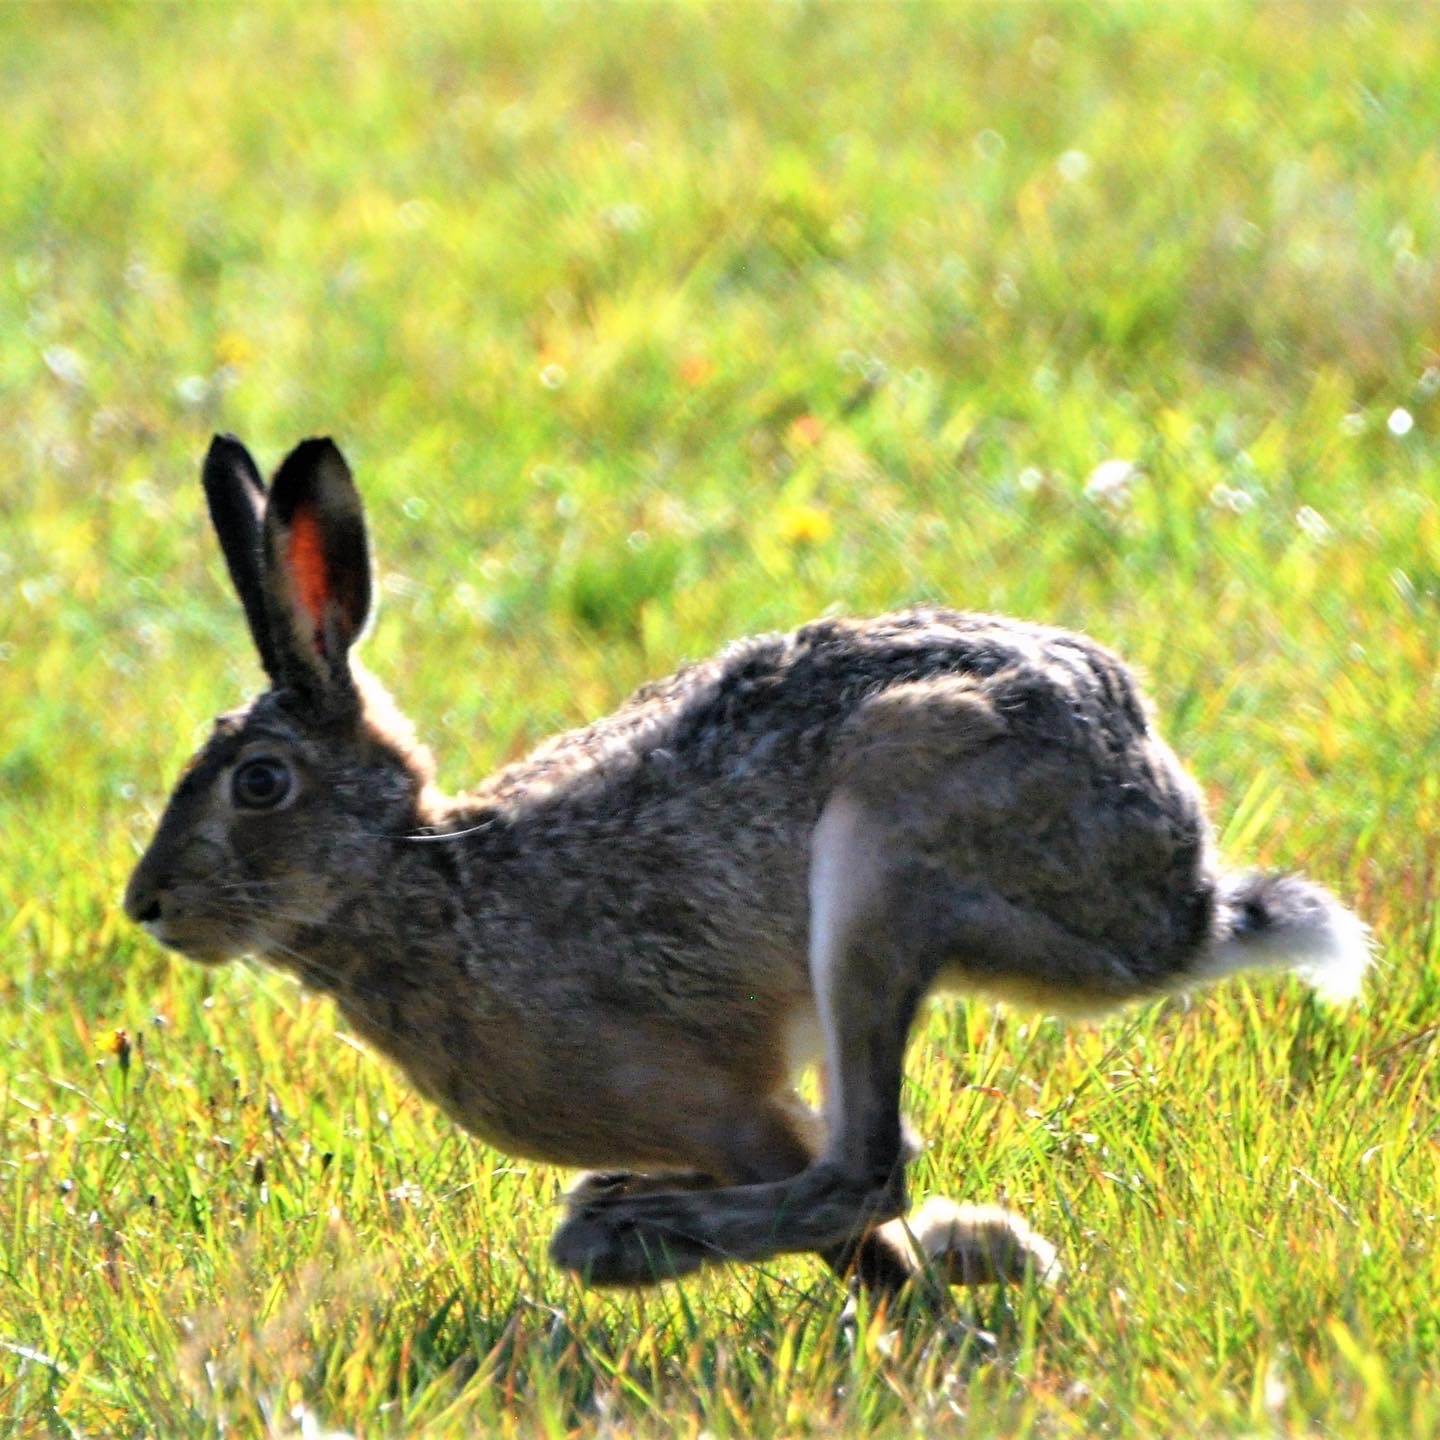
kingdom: Animalia
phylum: Chordata
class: Mammalia
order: Lagomorpha
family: Leporidae
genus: Lepus
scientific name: Lepus europaeus
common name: Hare
